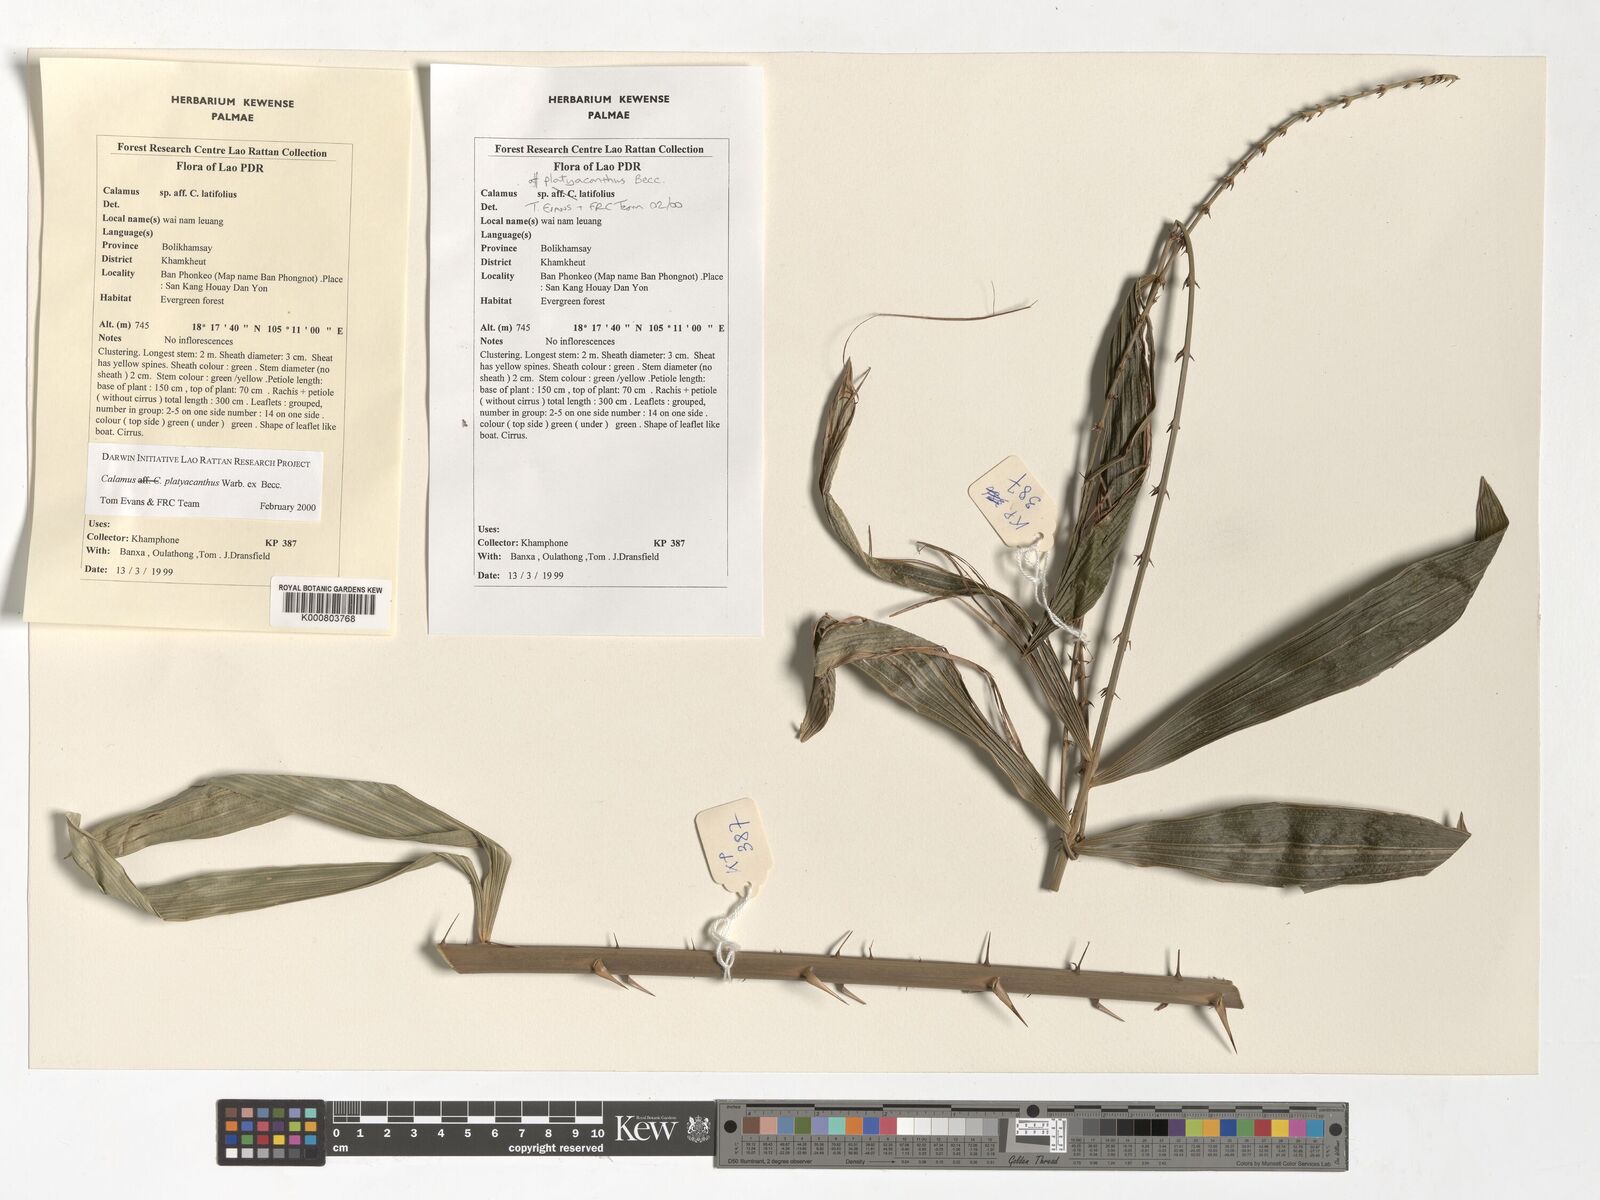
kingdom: Plantae
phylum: Tracheophyta
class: Liliopsida
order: Arecales
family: Arecaceae
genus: Calamus
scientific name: Calamus inermis
